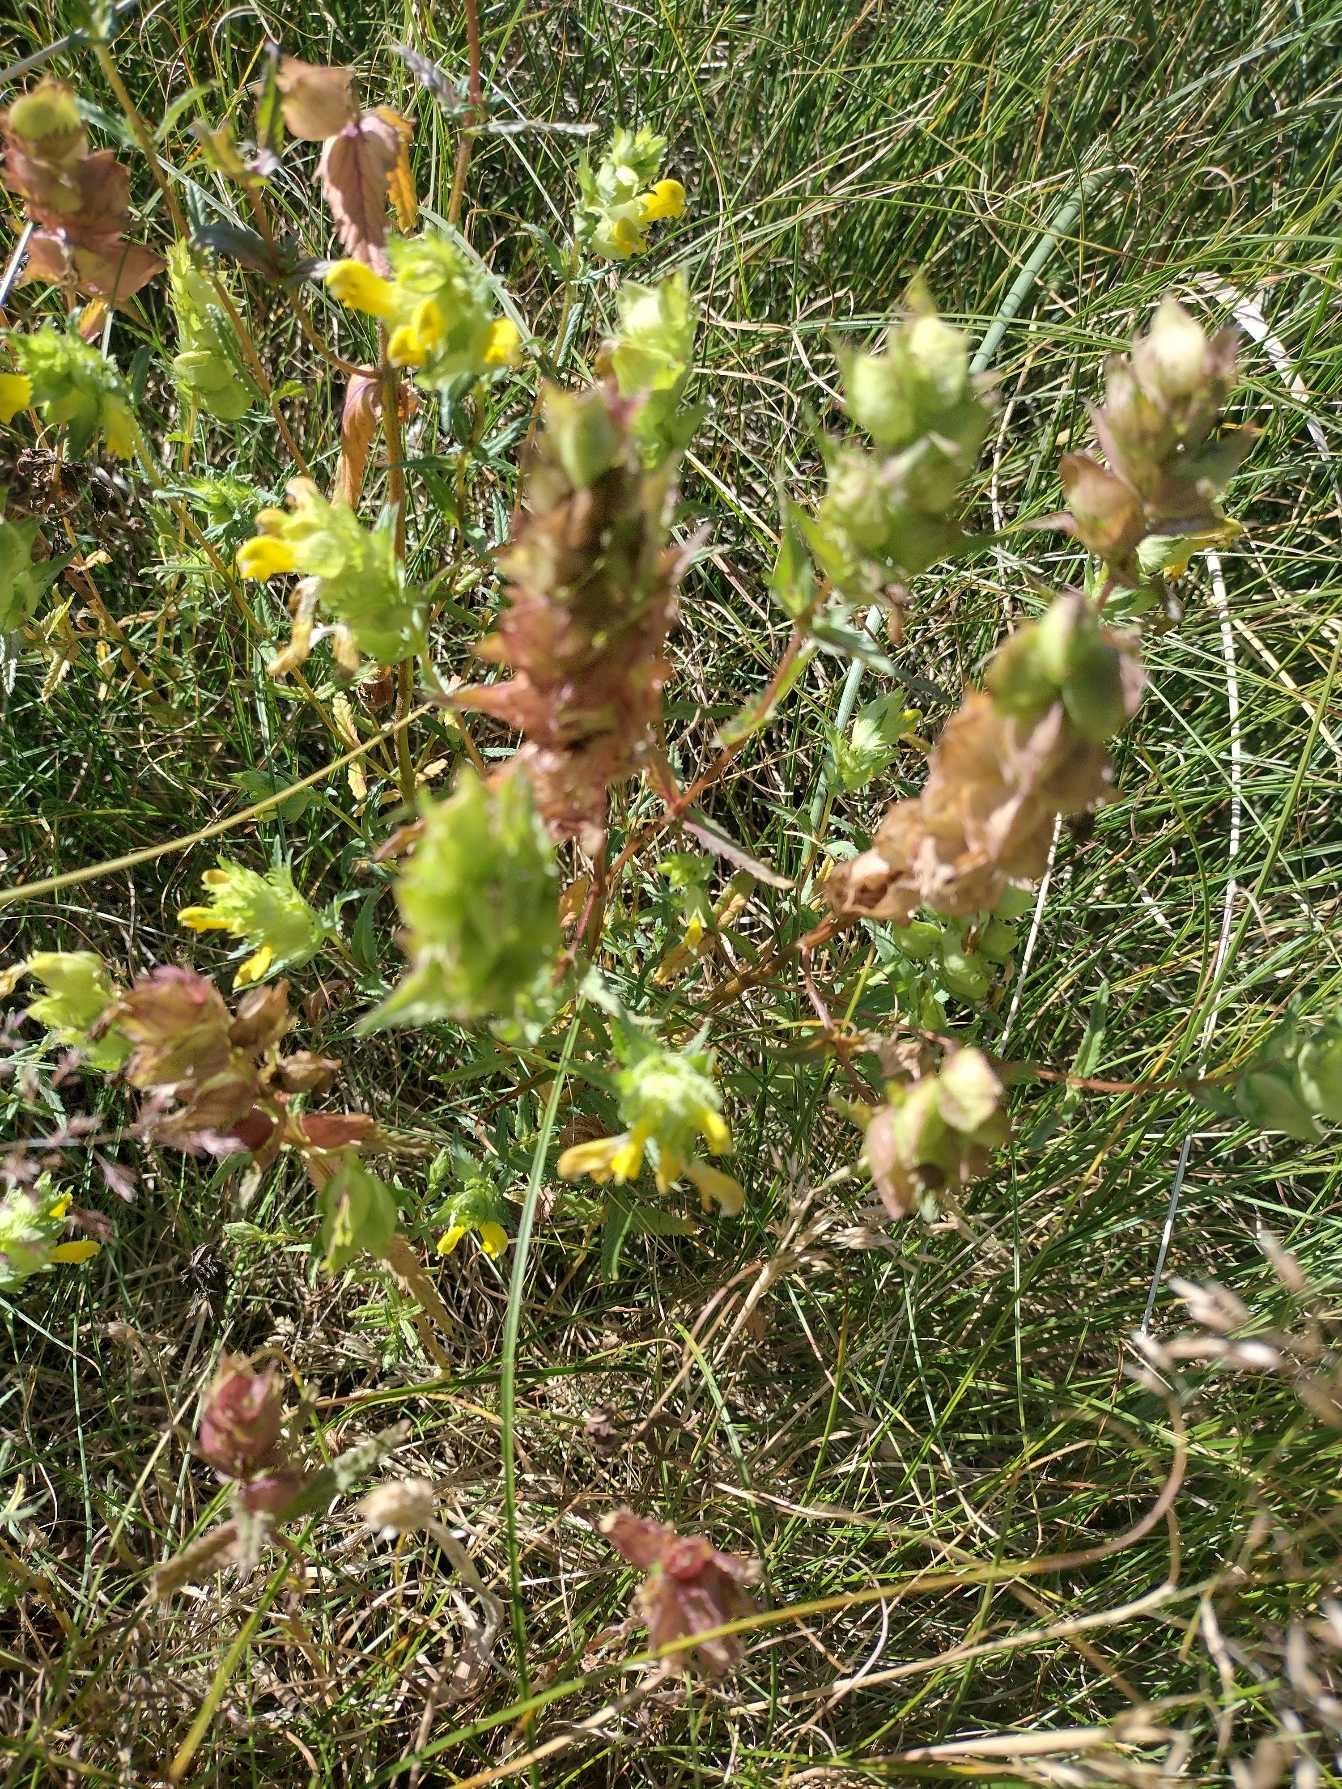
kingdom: Plantae
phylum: Tracheophyta
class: Magnoliopsida
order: Lamiales
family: Orobanchaceae
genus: Rhinanthus
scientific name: Rhinanthus
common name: Stor skjaller
